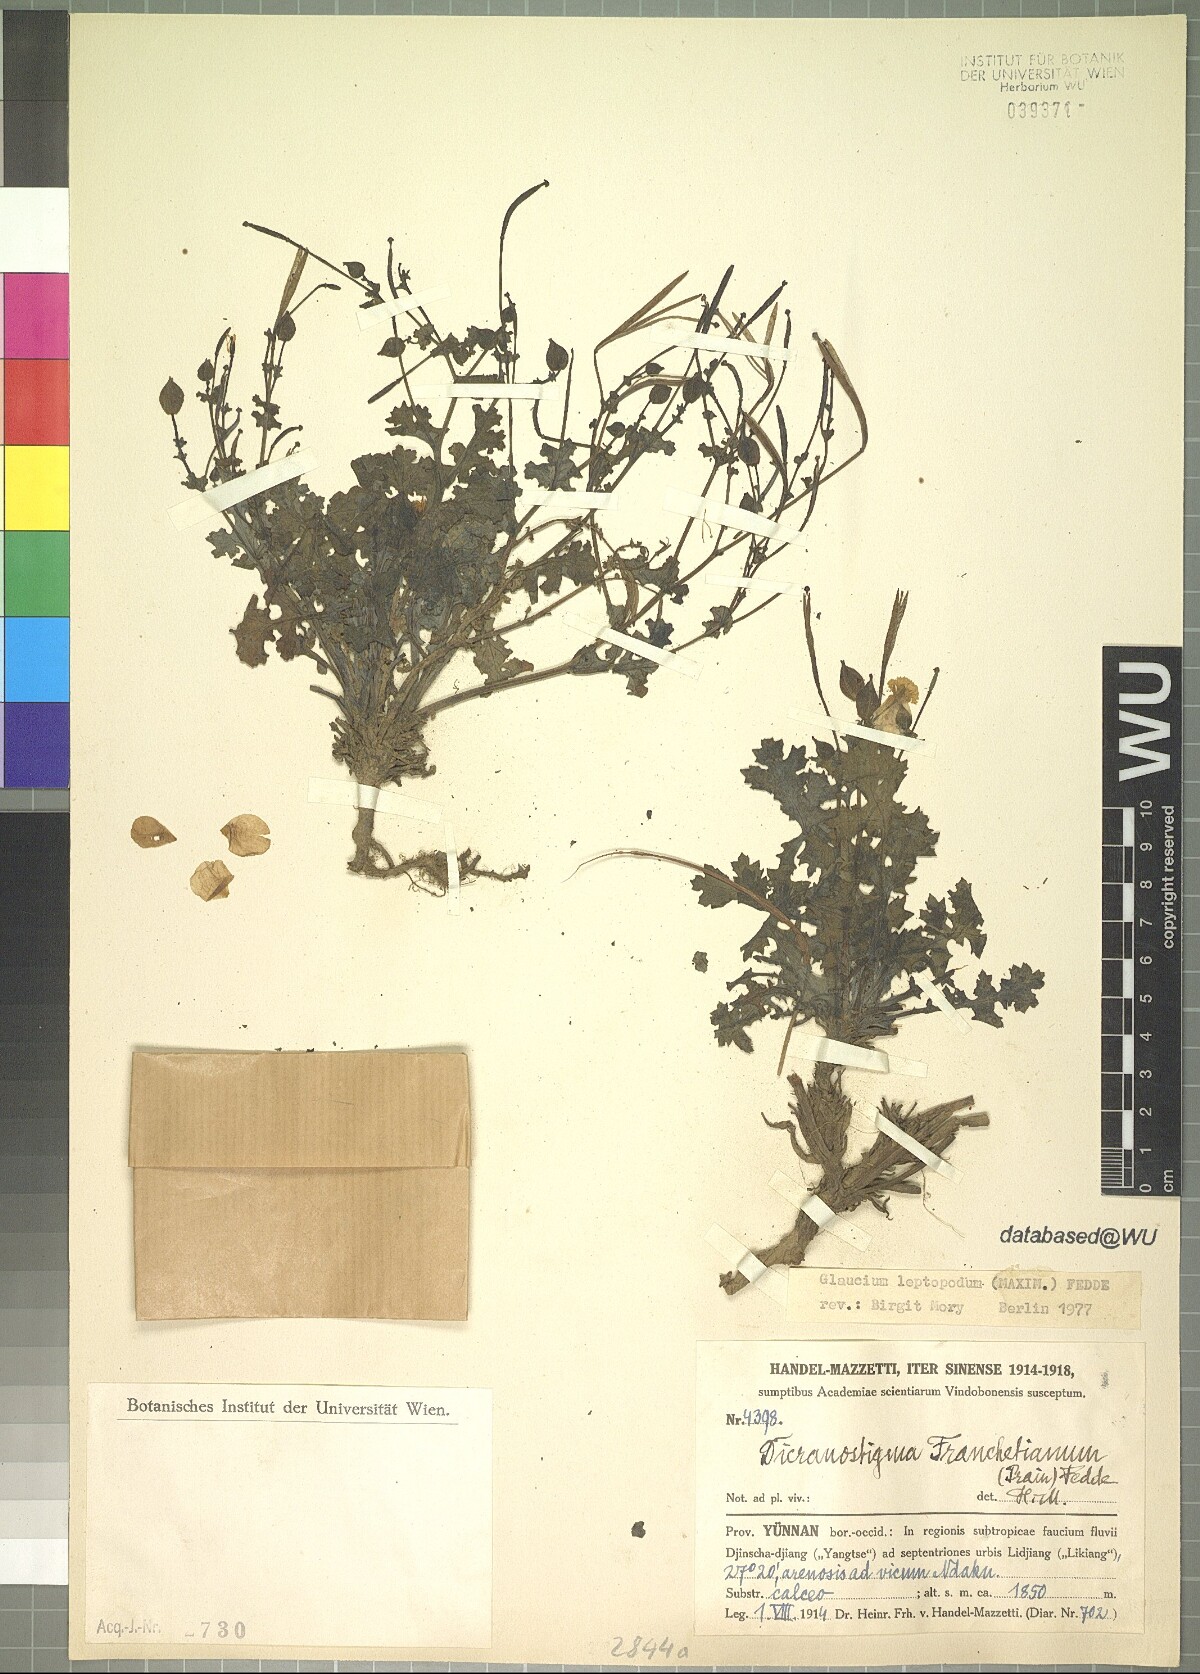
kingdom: Plantae
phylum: Tracheophyta
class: Magnoliopsida
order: Ranunculales
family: Papaveraceae
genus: Dicranostigma
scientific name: Dicranostigma leptopodum
